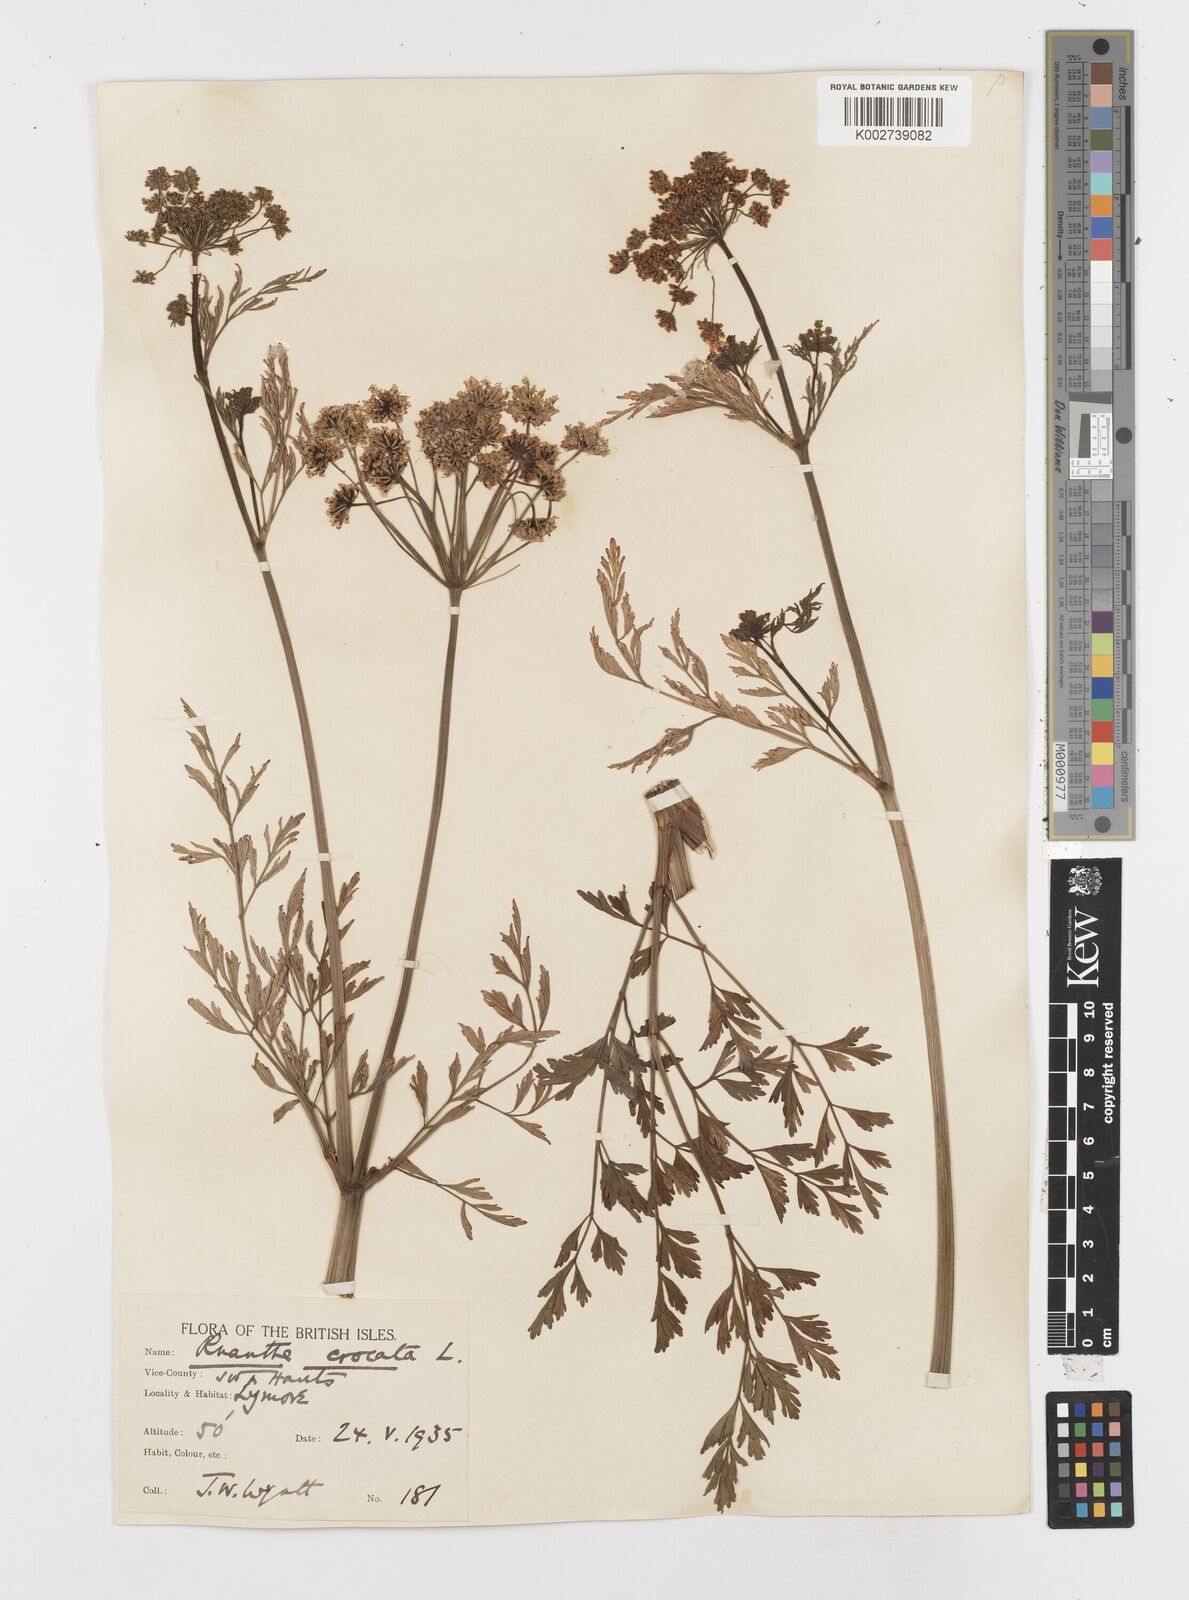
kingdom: Plantae
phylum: Tracheophyta
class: Magnoliopsida
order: Apiales
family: Apiaceae
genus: Oenanthe
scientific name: Oenanthe crocata
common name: Hemlock water-dropwort
